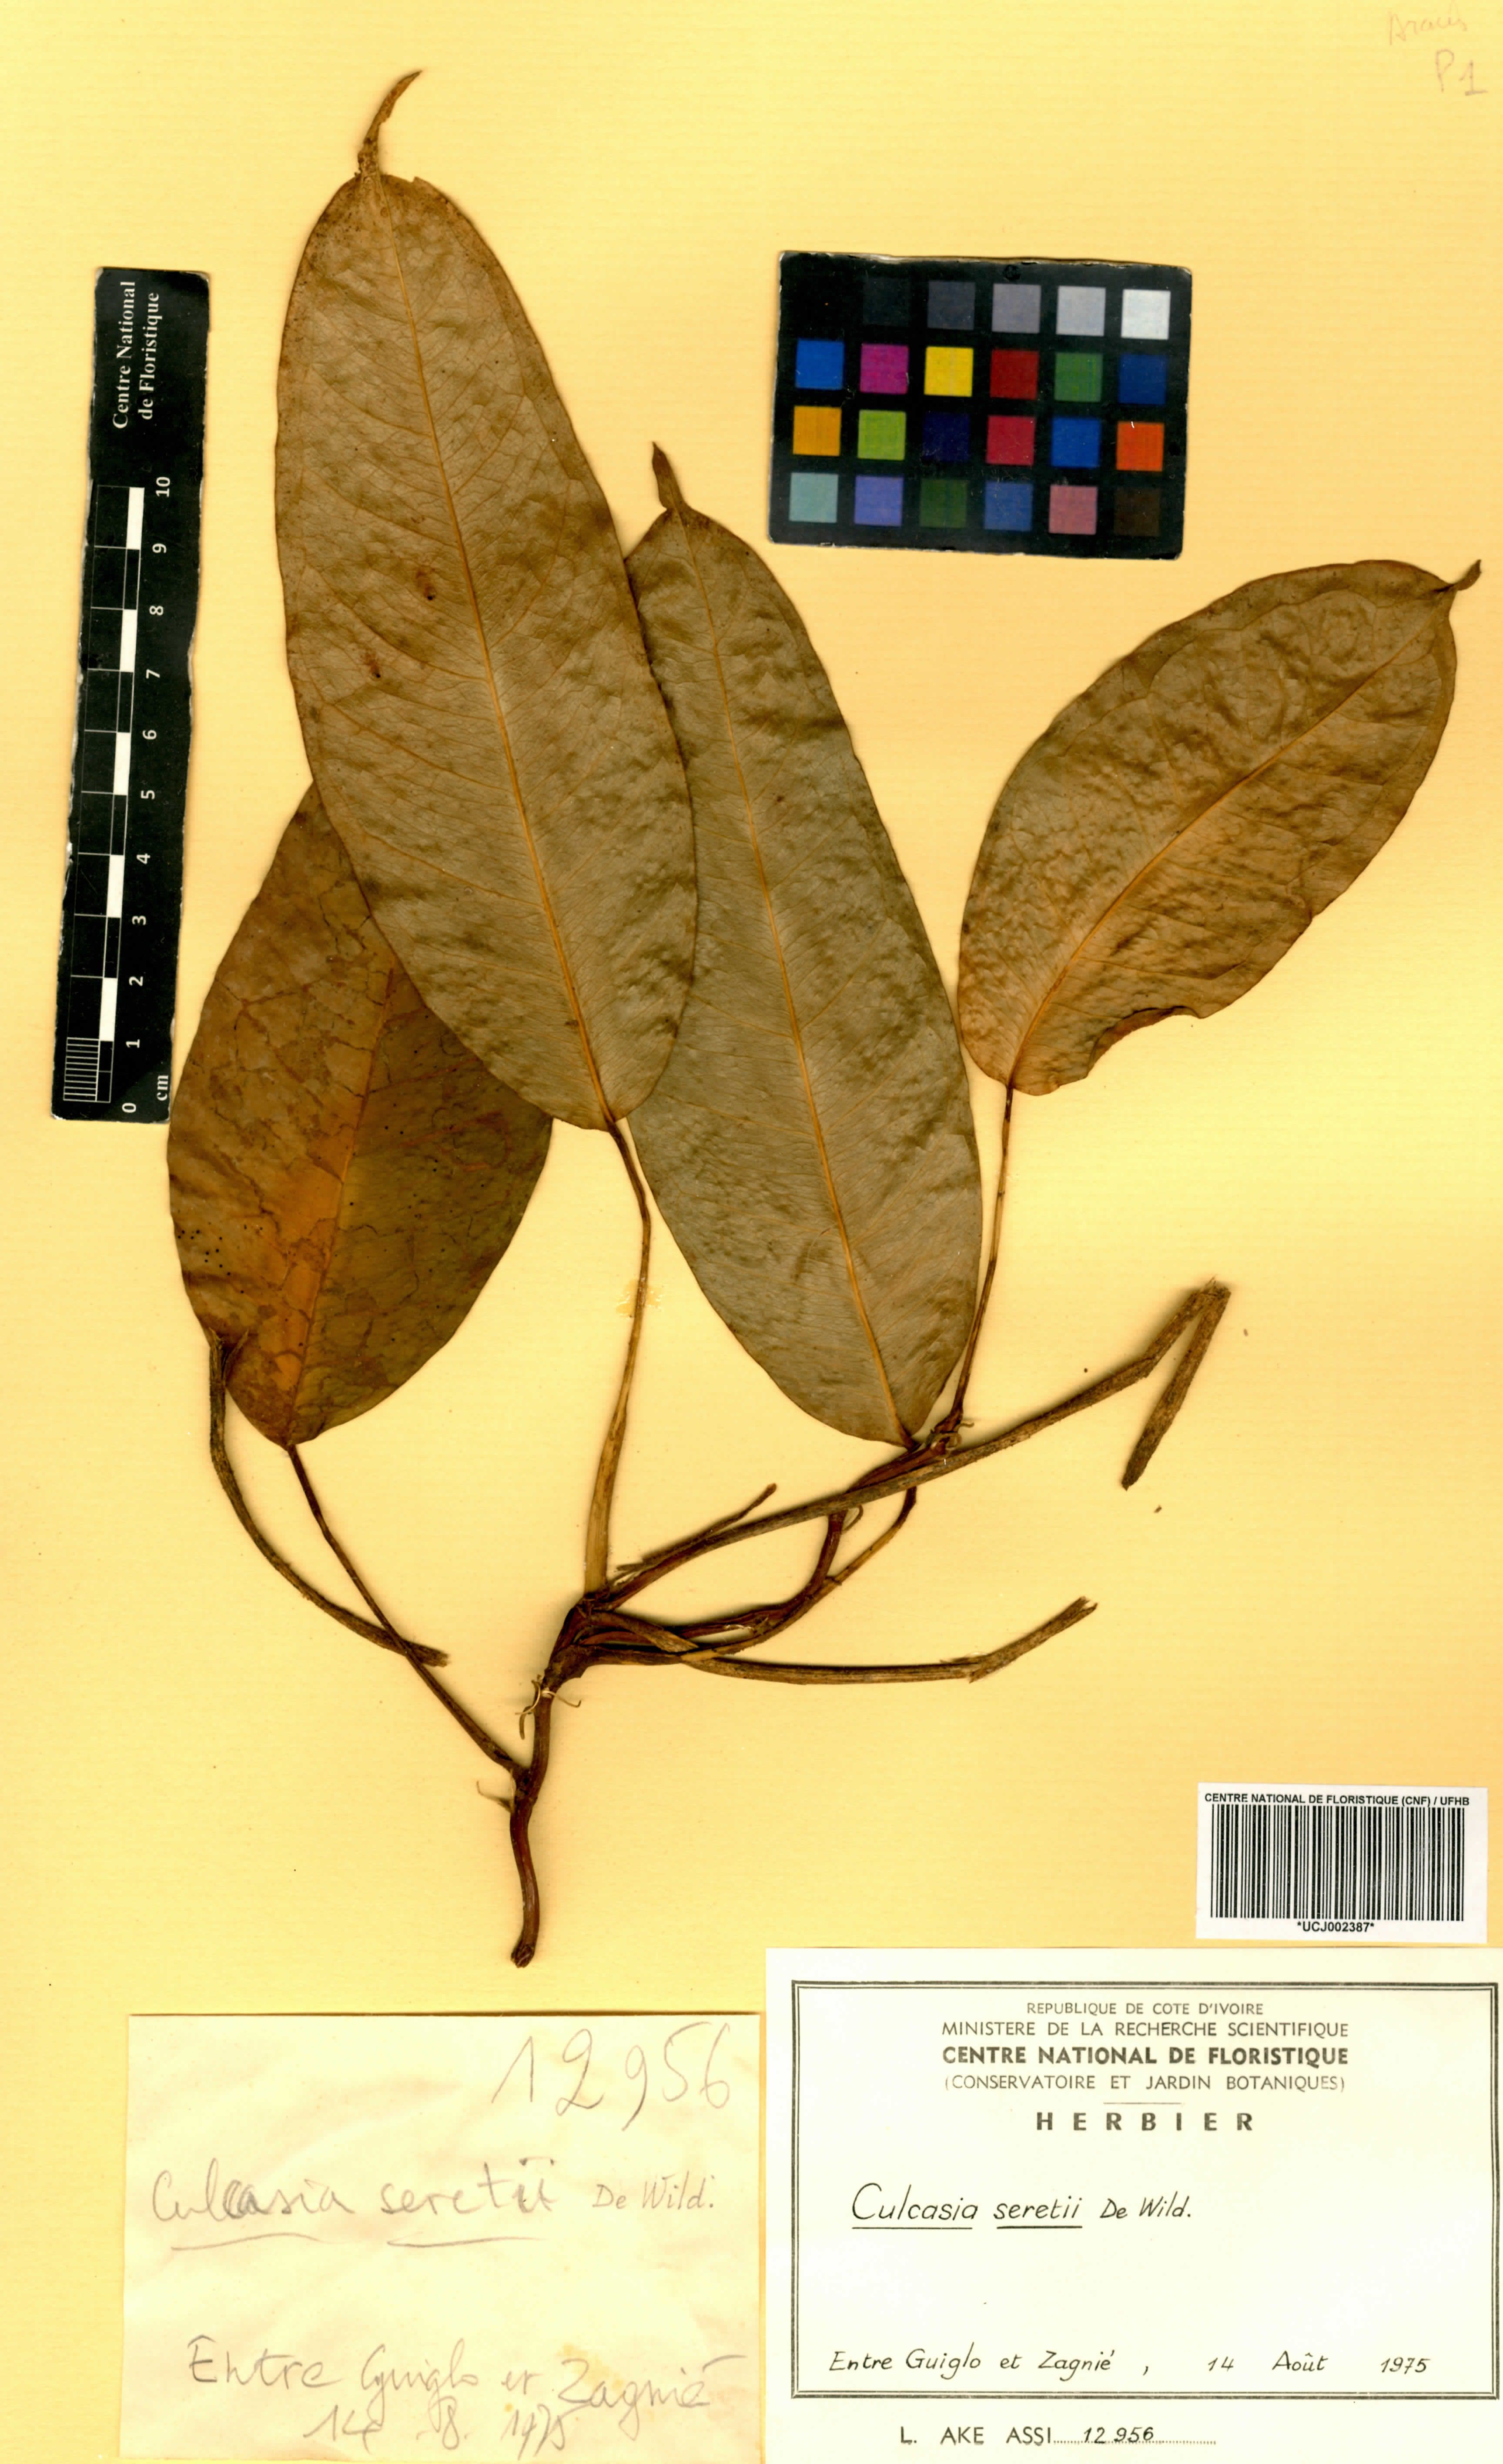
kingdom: Plantae
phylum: Tracheophyta
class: Liliopsida
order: Alismatales
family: Araceae
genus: Culcasia
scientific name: Culcasia seretii
